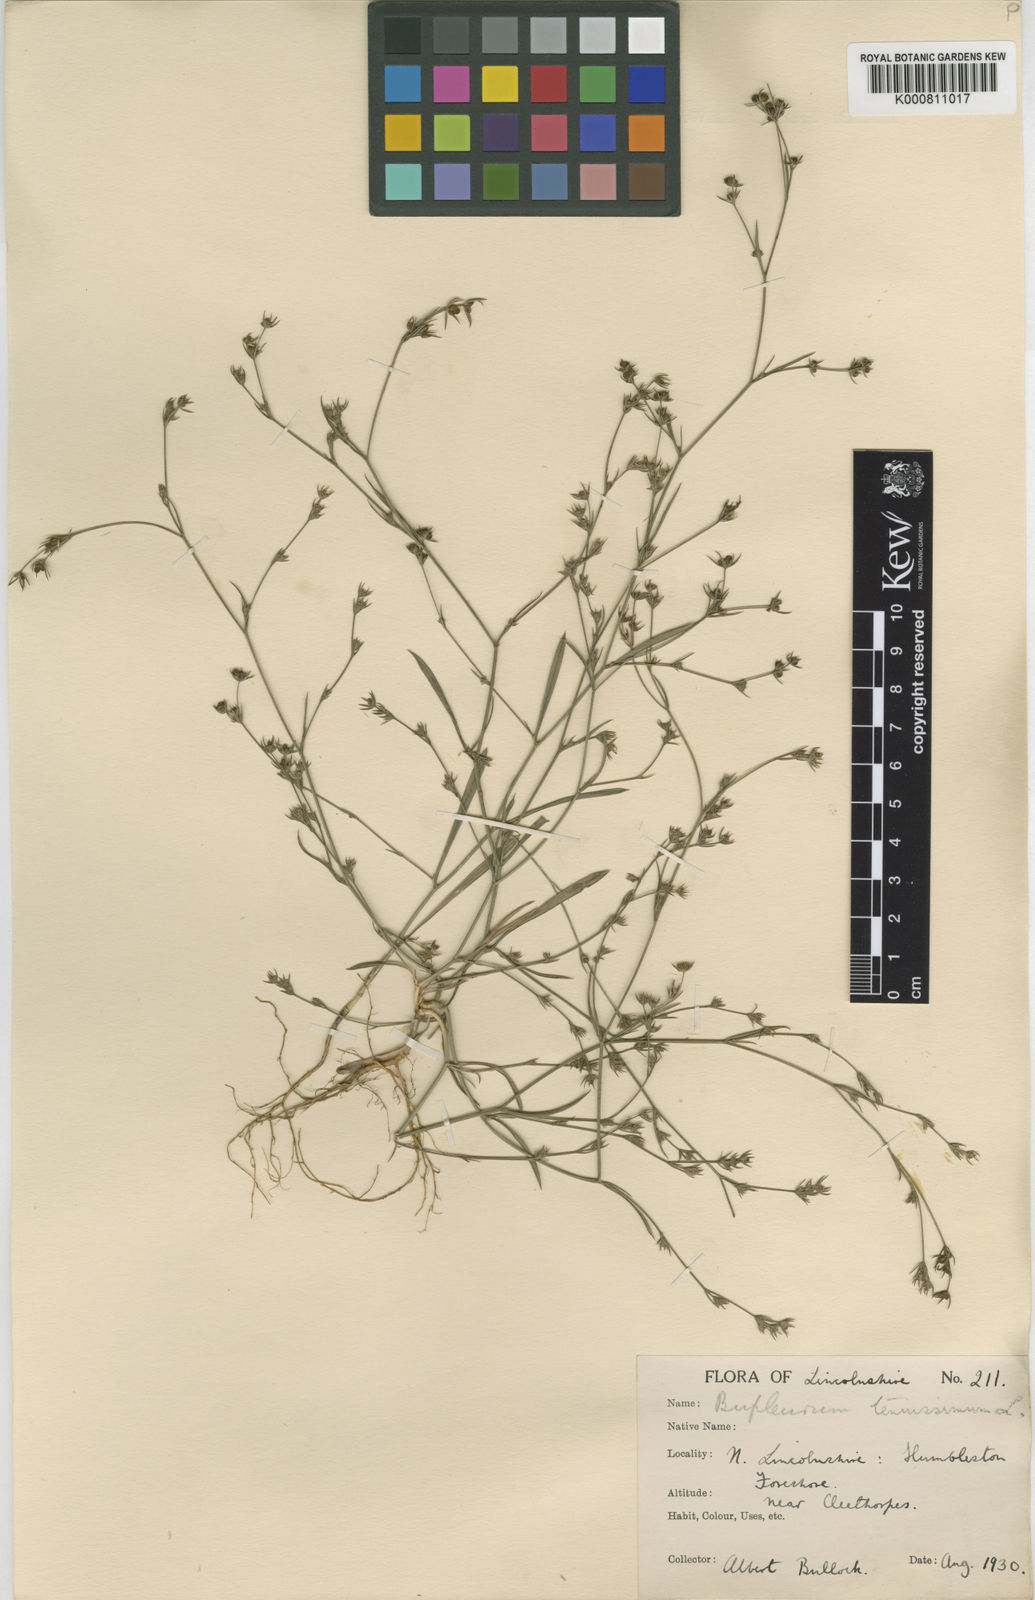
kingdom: Plantae
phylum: Tracheophyta
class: Magnoliopsida
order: Apiales
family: Apiaceae
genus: Bupleurum
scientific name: Bupleurum tenuissimum
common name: Slender hare's-ear
